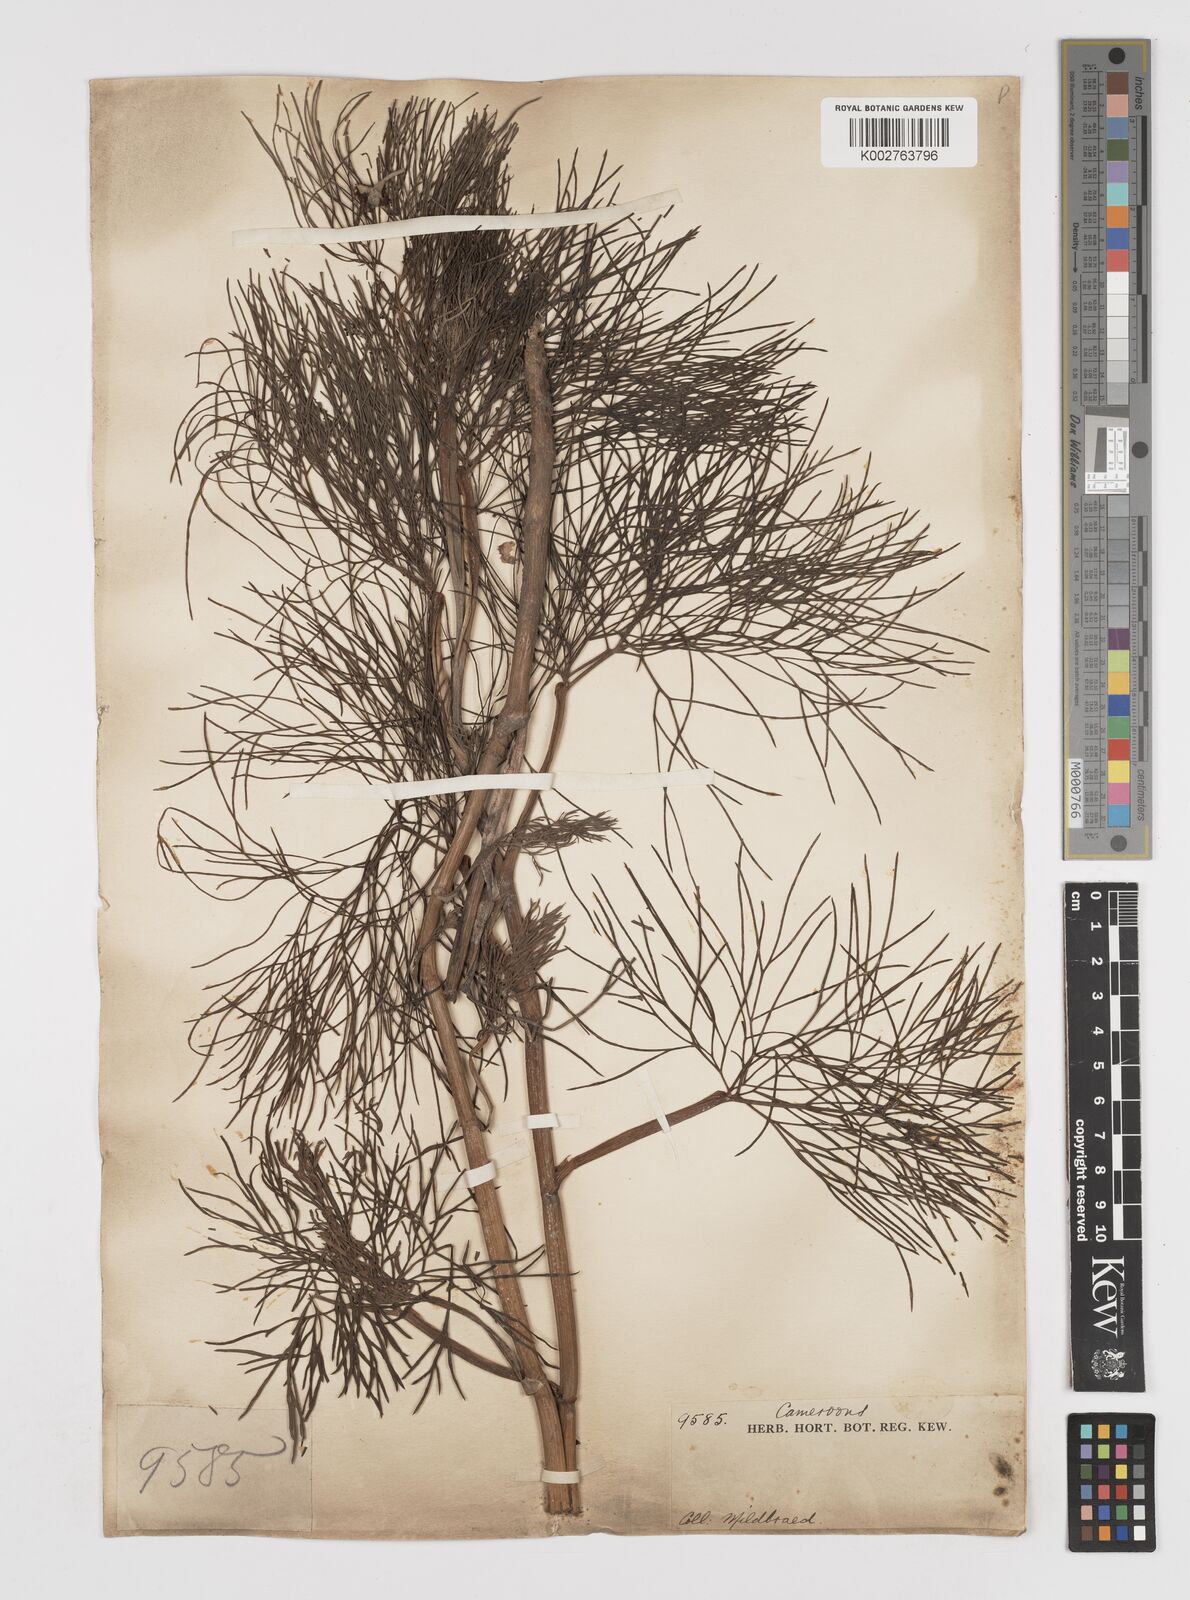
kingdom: Plantae
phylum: Tracheophyta
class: Magnoliopsida
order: Apiales
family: Apiaceae
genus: Diplolophium
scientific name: Diplolophium africanum
